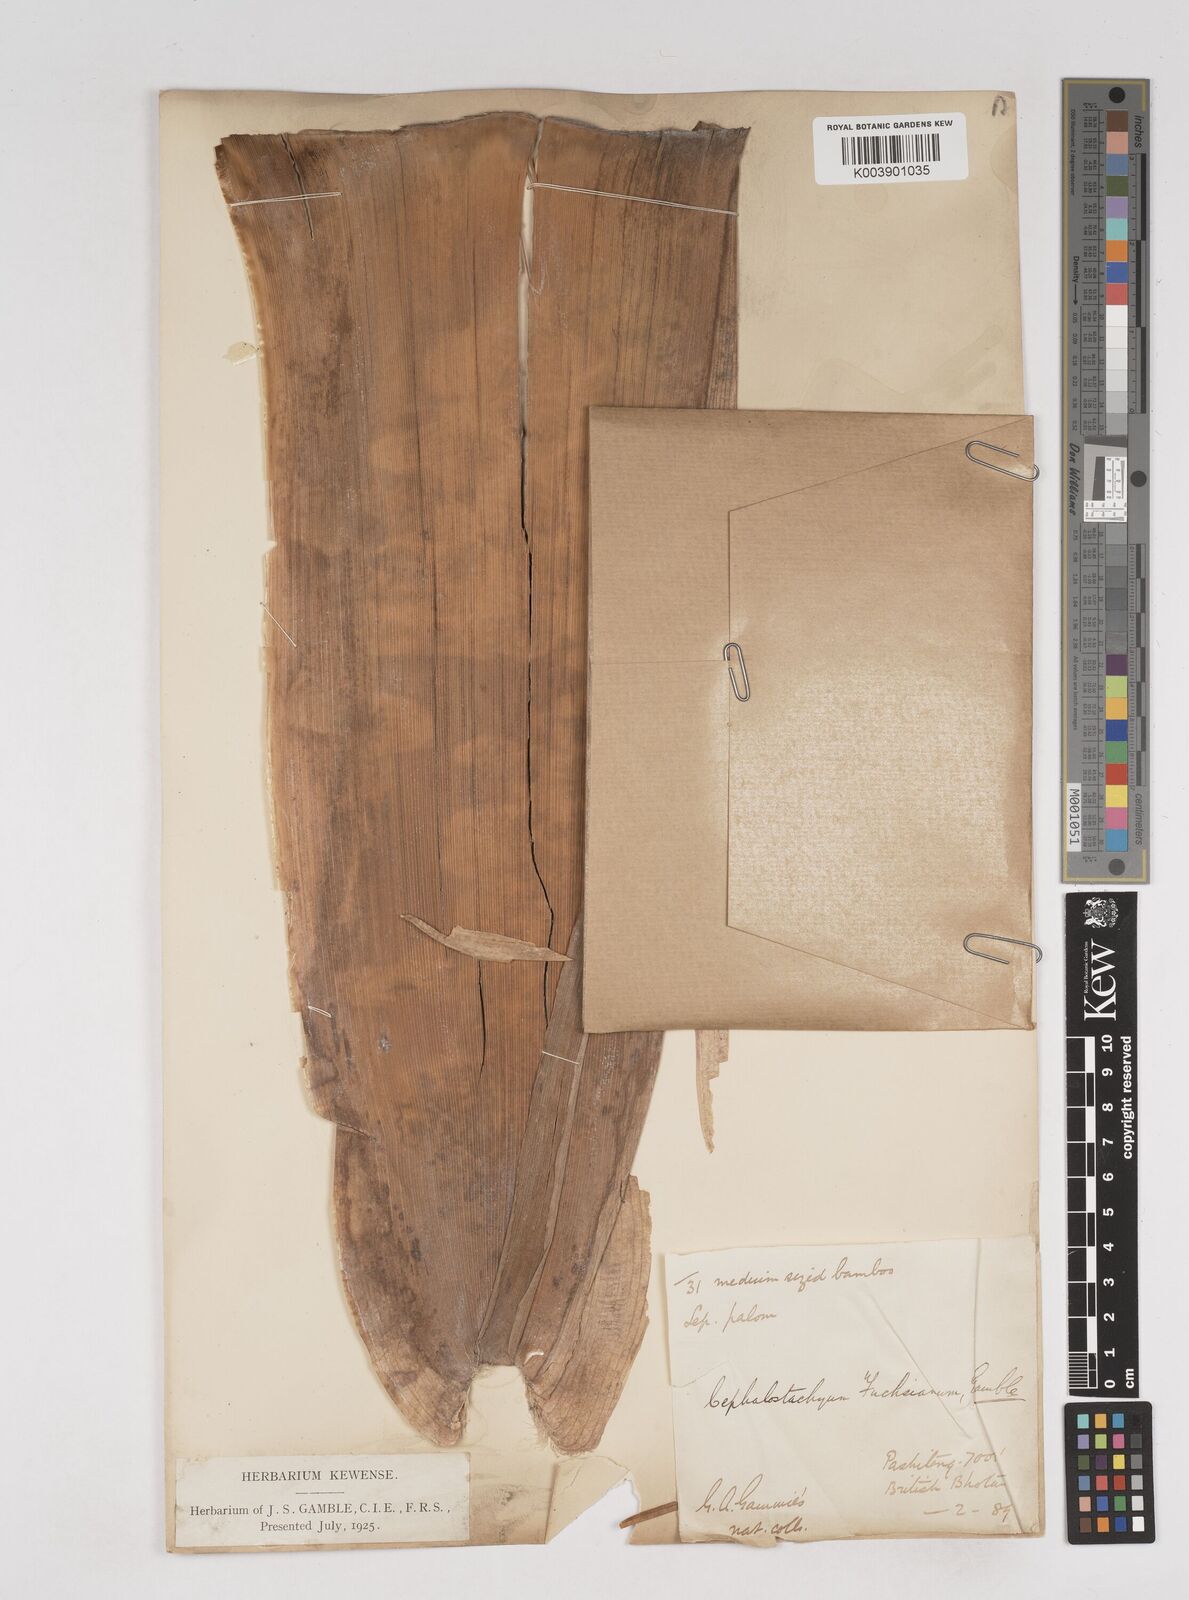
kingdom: Plantae
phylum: Tracheophyta
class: Liliopsida
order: Poales
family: Poaceae
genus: Cephalostachyum
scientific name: Cephalostachyum latifolium
